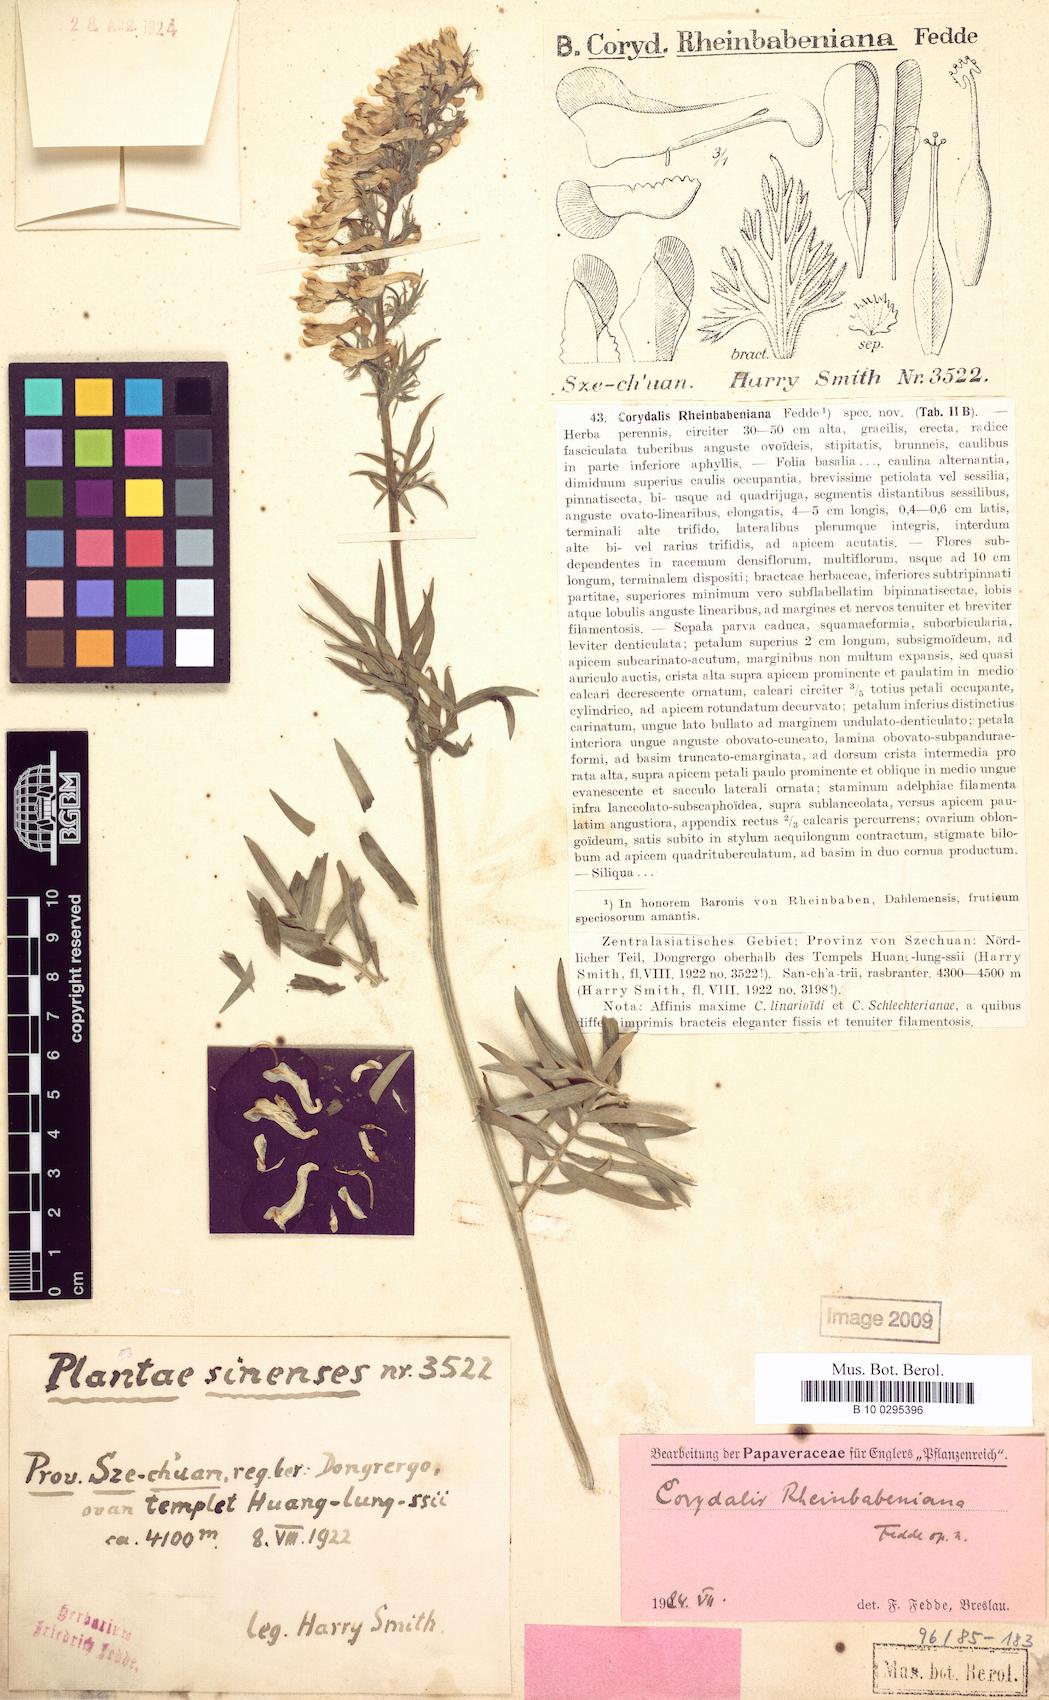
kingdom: Plantae
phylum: Tracheophyta
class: Magnoliopsida
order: Ranunculales
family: Papaveraceae
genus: Corydalis
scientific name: Corydalis rheinbabeniana
